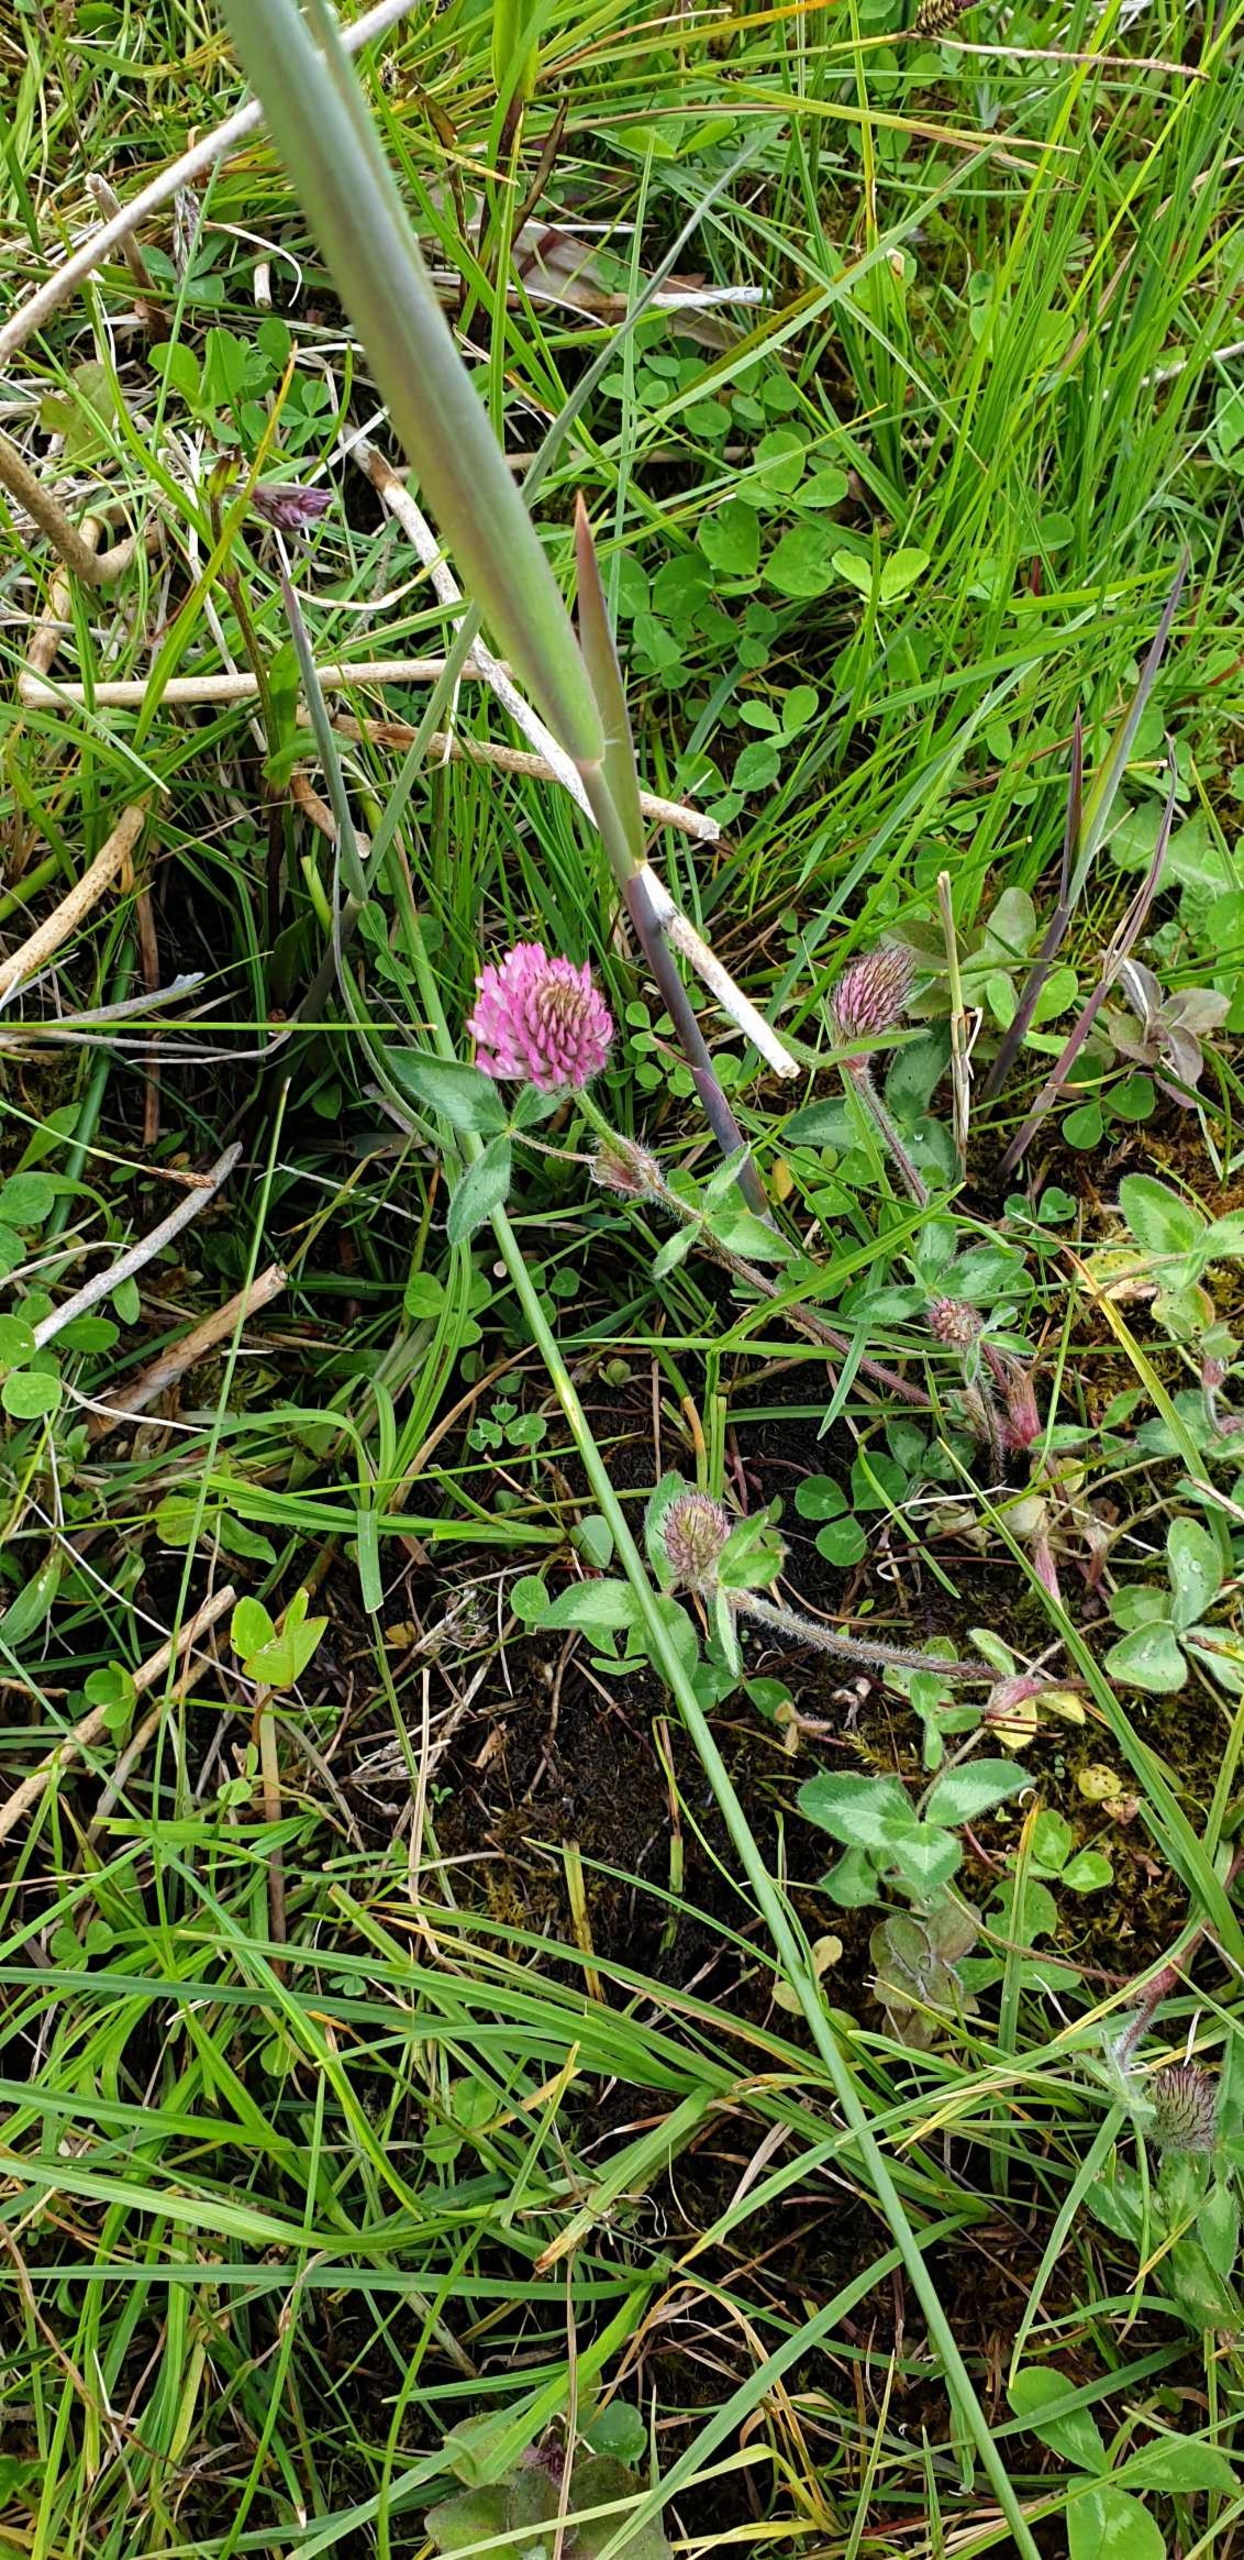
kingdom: Plantae
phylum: Tracheophyta
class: Magnoliopsida
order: Fabales
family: Fabaceae
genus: Trifolium
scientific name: Trifolium pratense
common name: Rød-kløver
